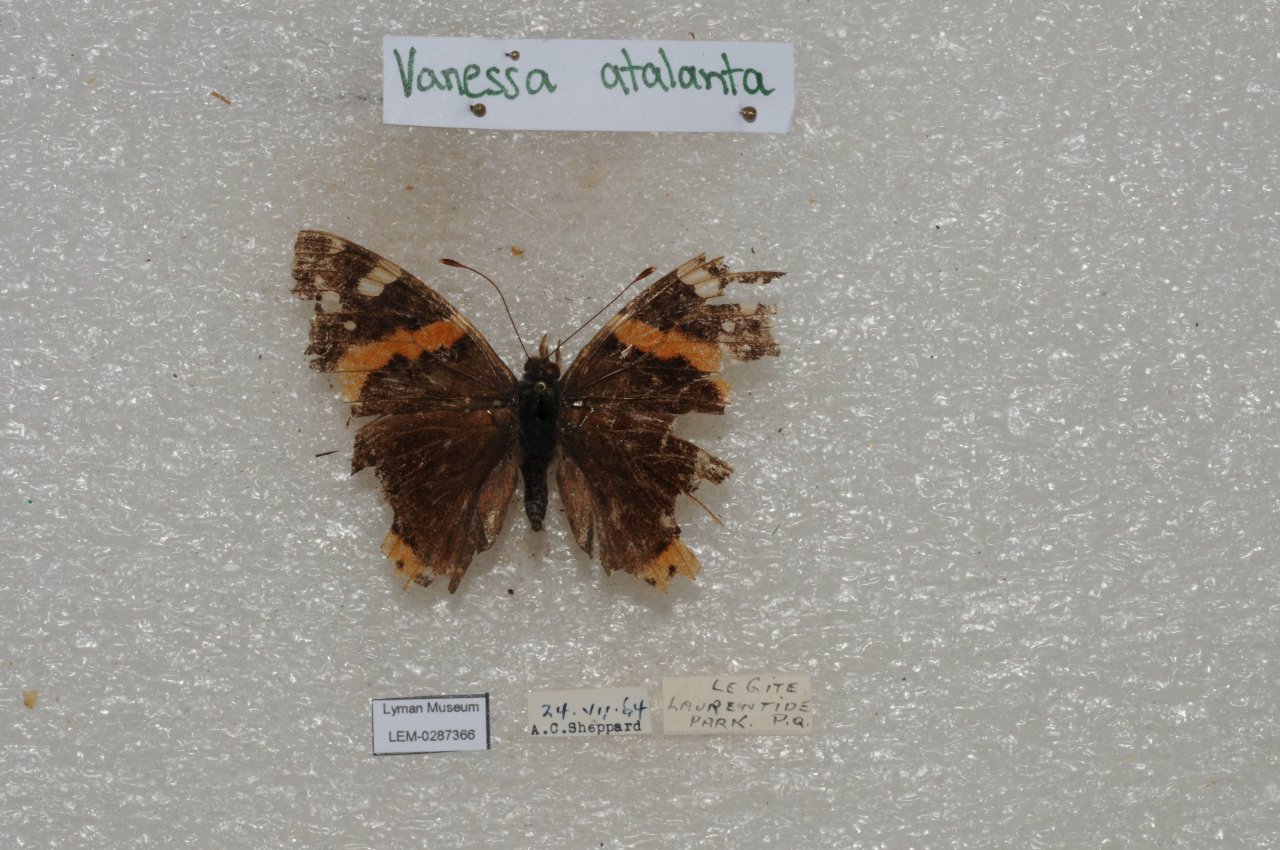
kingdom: Animalia
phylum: Arthropoda
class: Insecta
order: Lepidoptera
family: Nymphalidae
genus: Vanessa
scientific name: Vanessa atalanta
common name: Red Admiral
